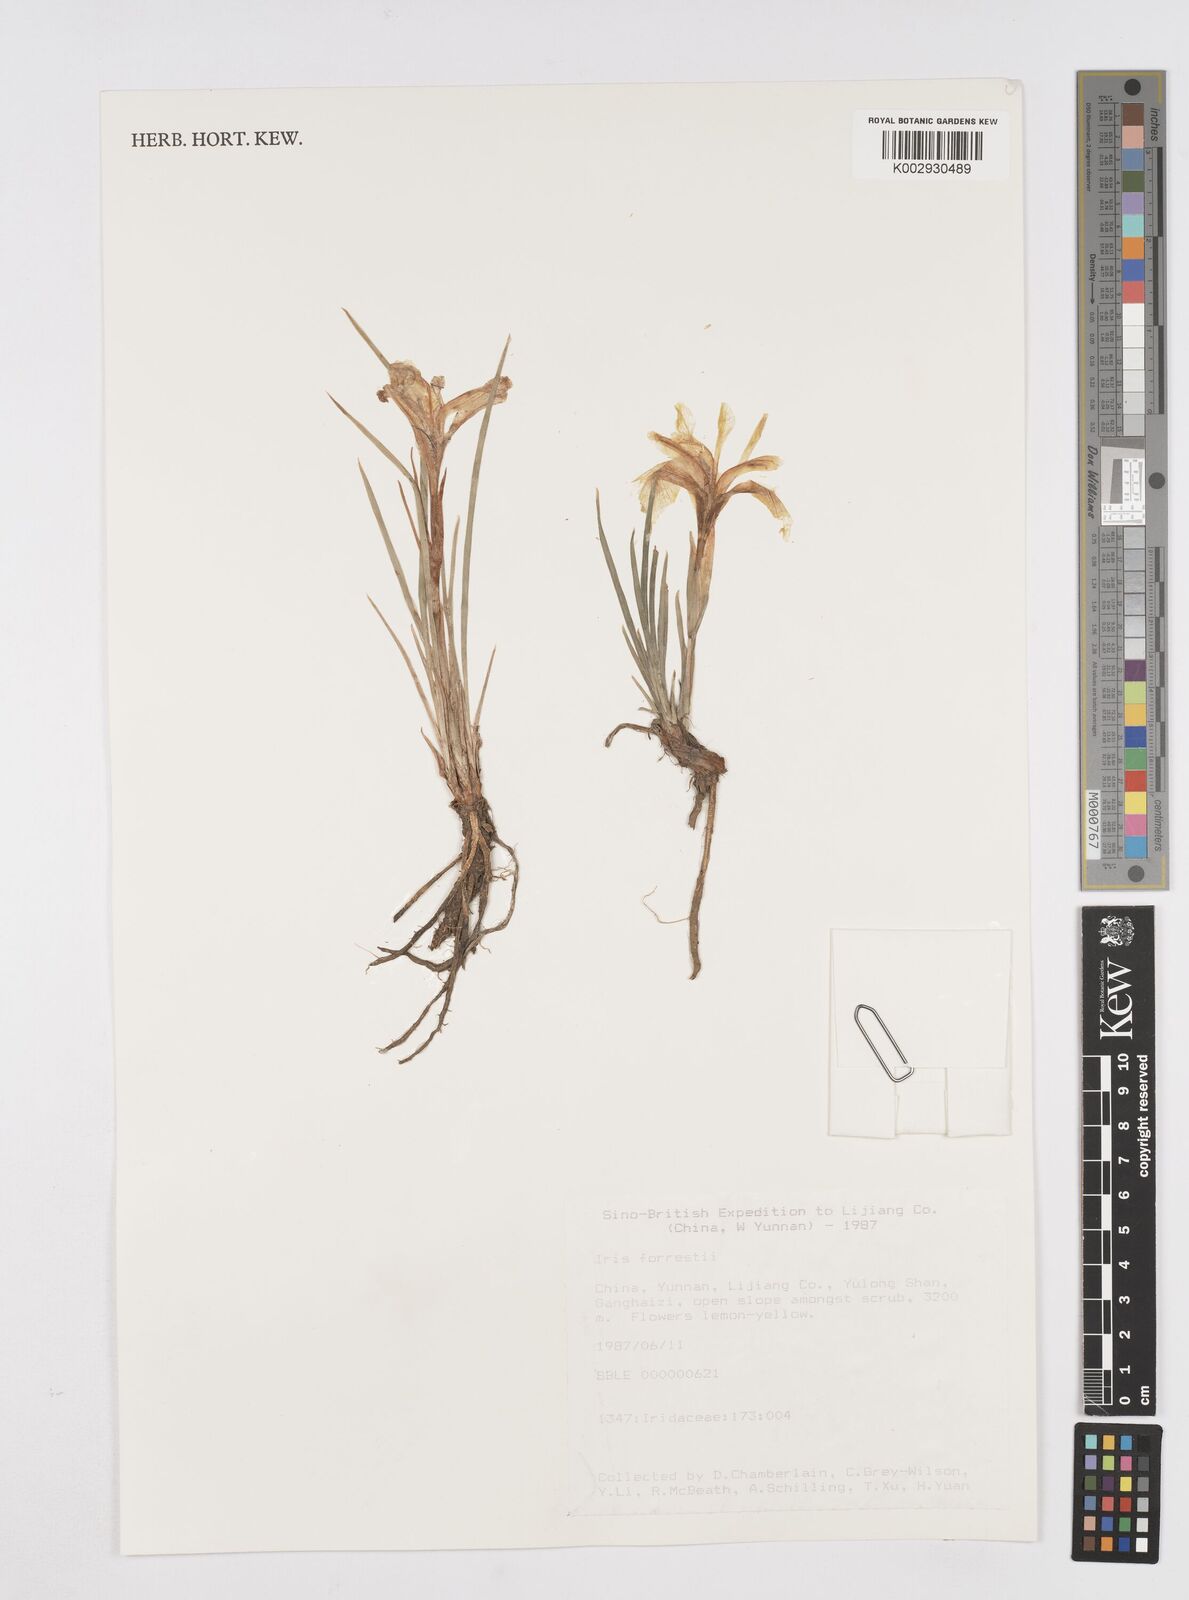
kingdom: Plantae
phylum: Tracheophyta
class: Liliopsida
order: Asparagales
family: Iridaceae
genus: Iris
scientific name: Iris forrestii
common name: Yunnan iris
